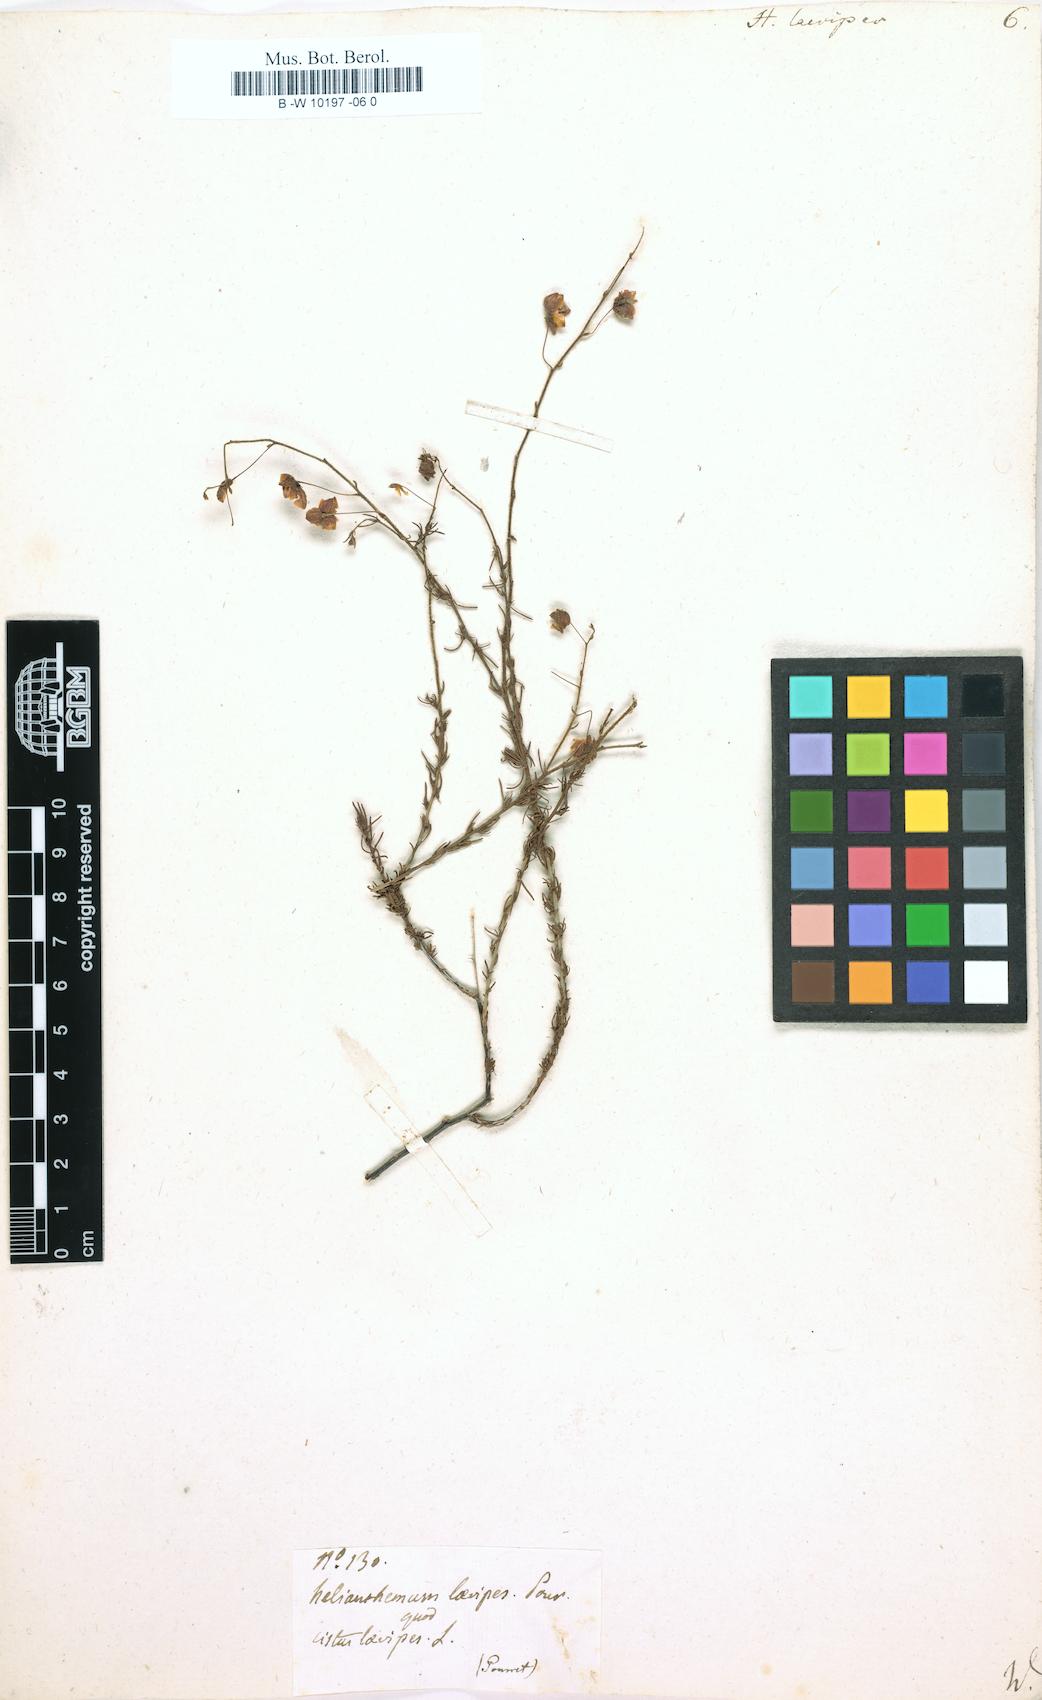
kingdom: Plantae
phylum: Tracheophyta
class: Magnoliopsida
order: Malvales
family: Cistaceae
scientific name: Cistaceae
